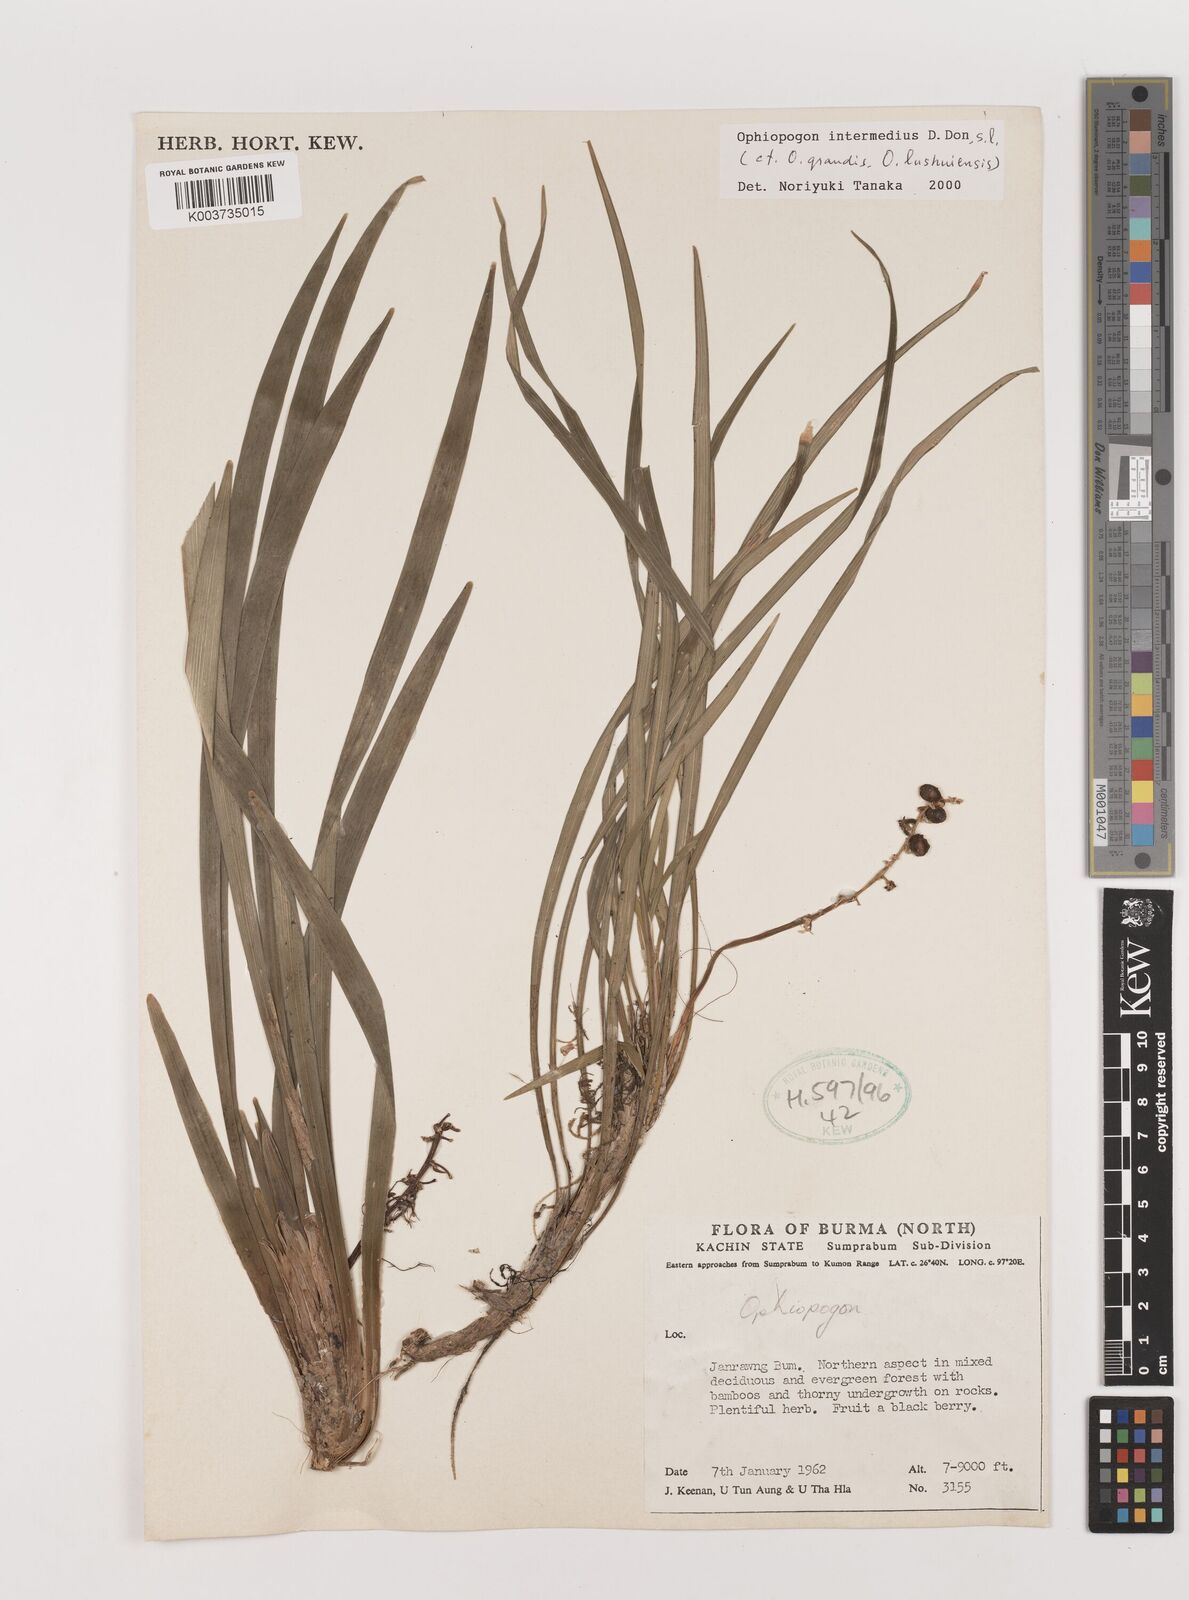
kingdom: Plantae
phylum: Tracheophyta
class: Liliopsida
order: Asparagales
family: Asparagaceae
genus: Ophiopogon
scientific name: Ophiopogon intermedius
